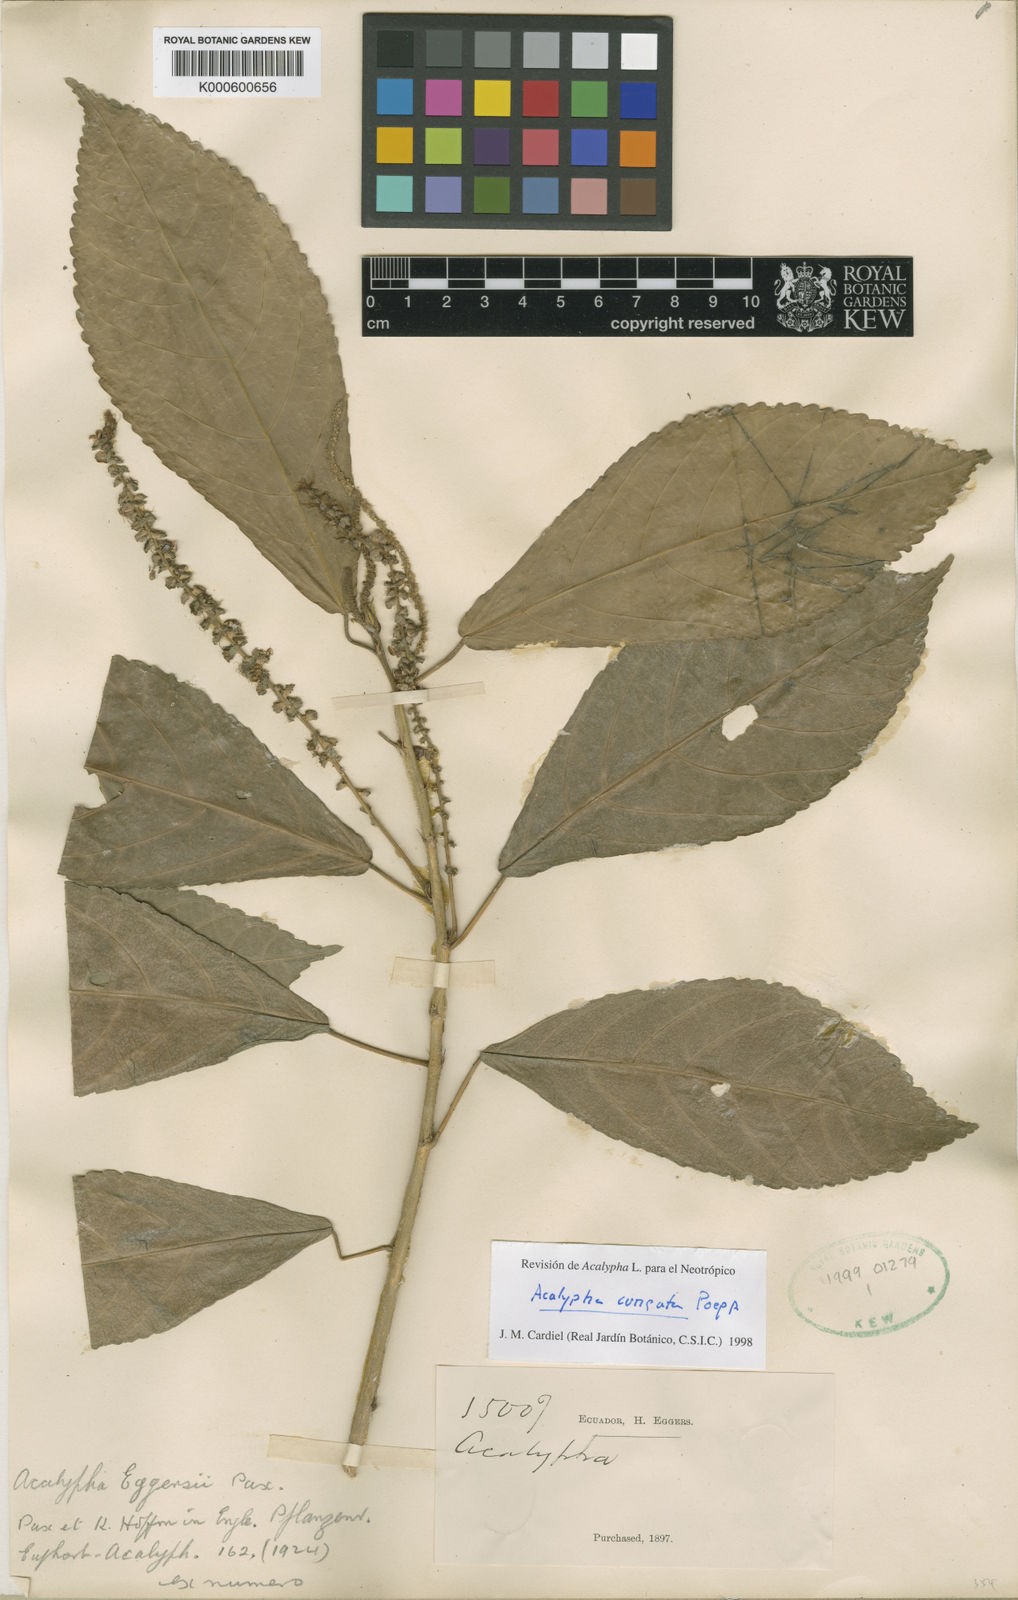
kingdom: Plantae
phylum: Tracheophyta
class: Magnoliopsida
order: Malpighiales
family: Euphorbiaceae
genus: Acalypha
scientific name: Acalypha cuneata
